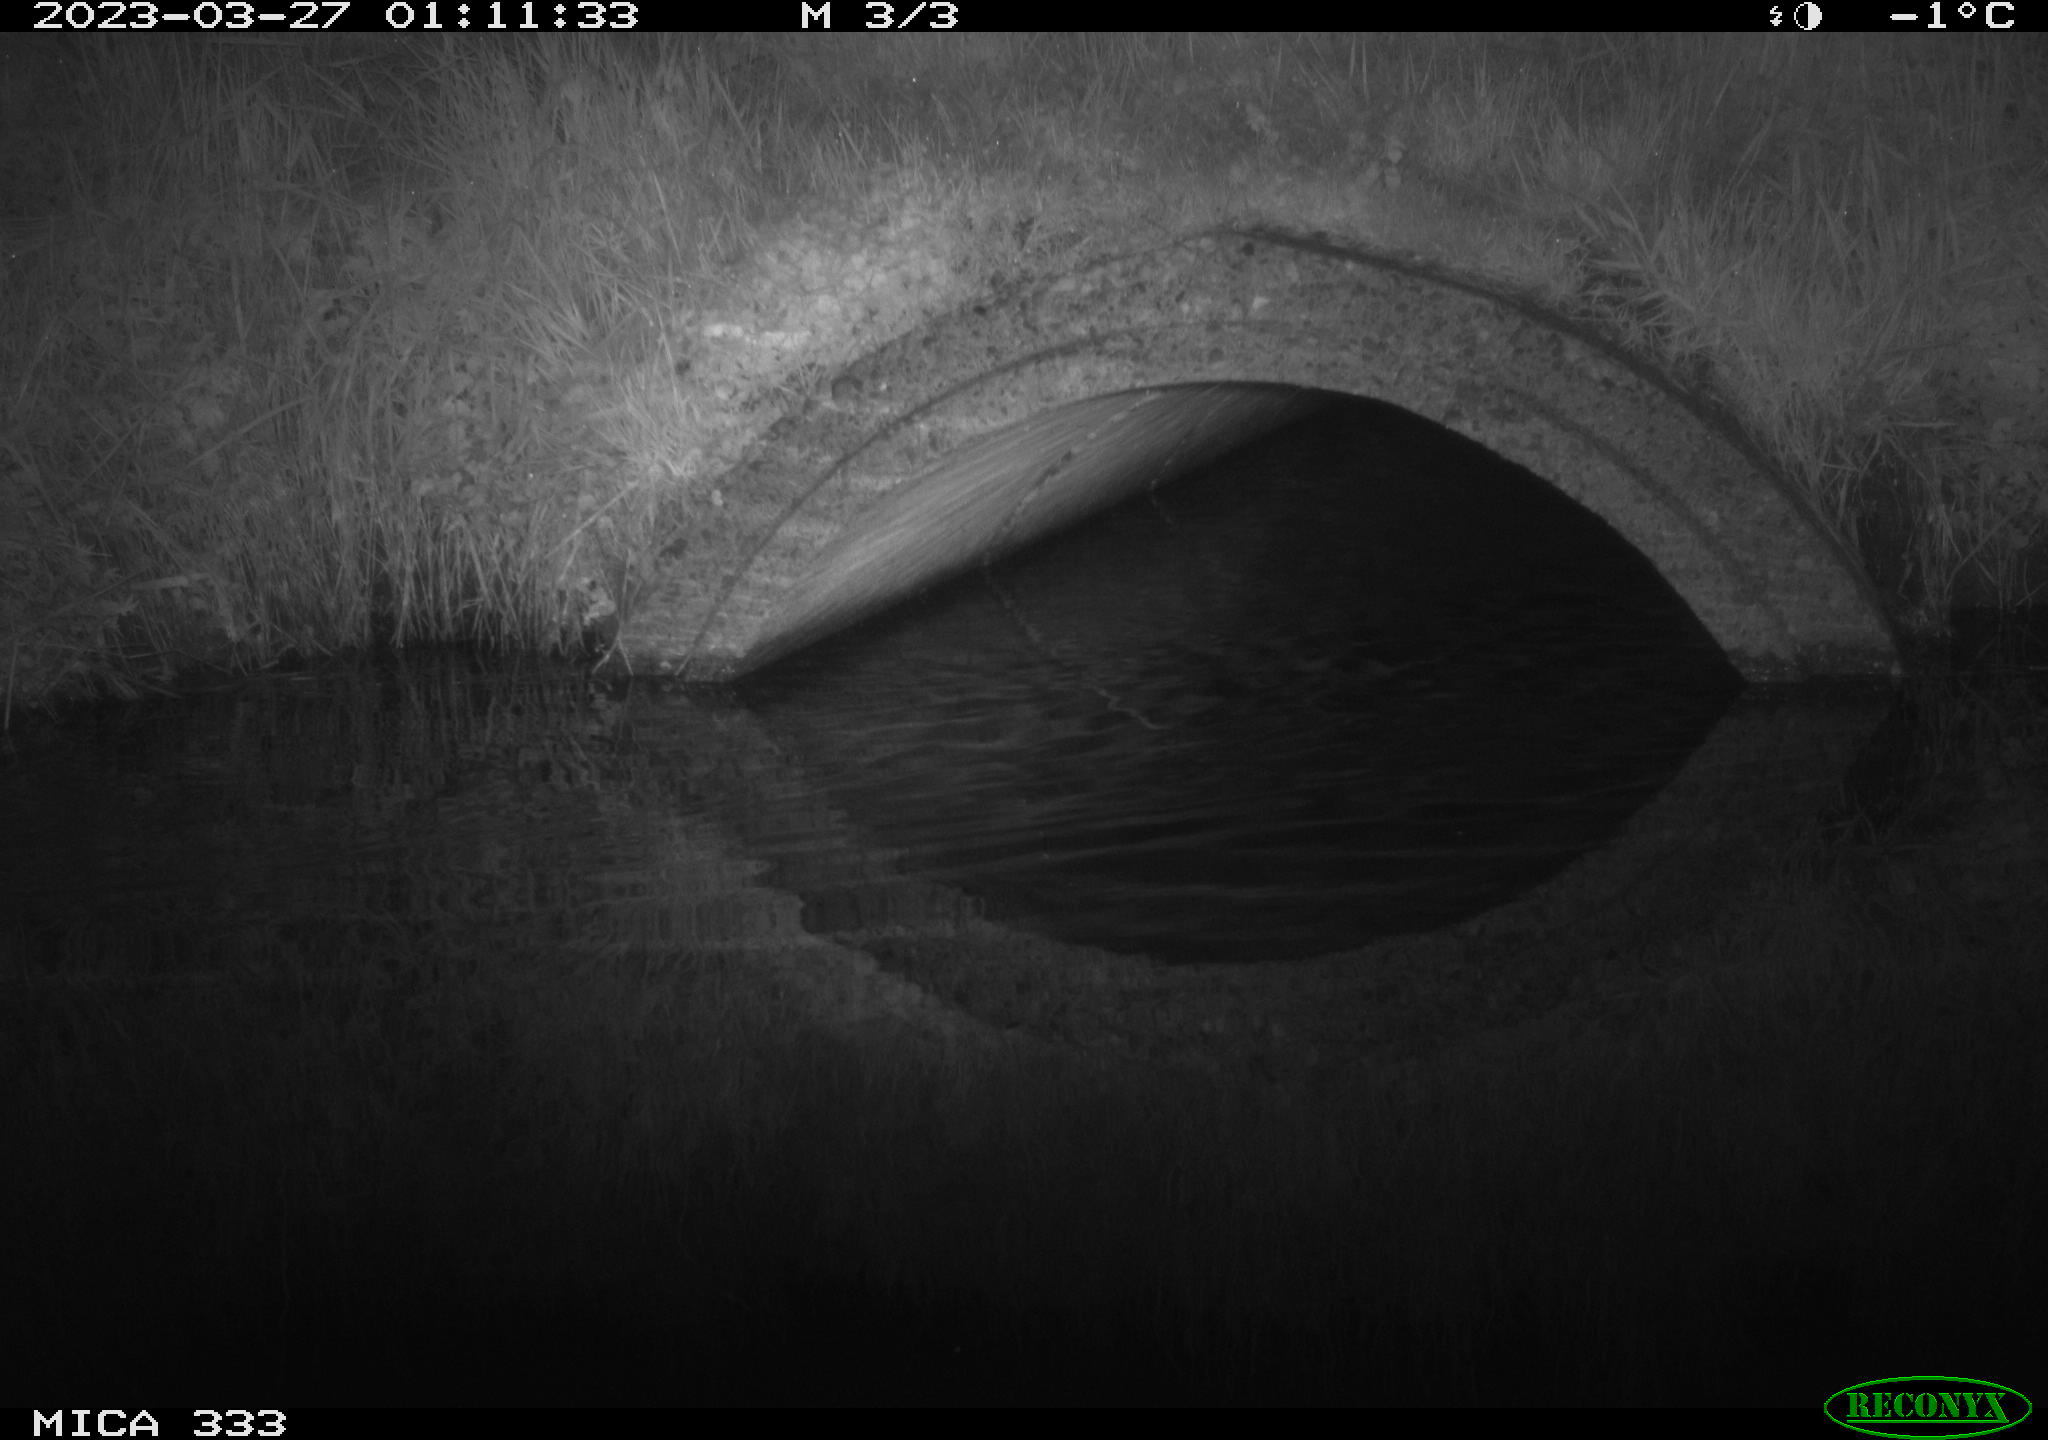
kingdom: Animalia
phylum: Chordata
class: Mammalia
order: Rodentia
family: Muridae
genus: Rattus
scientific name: Rattus norvegicus
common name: Brown rat
